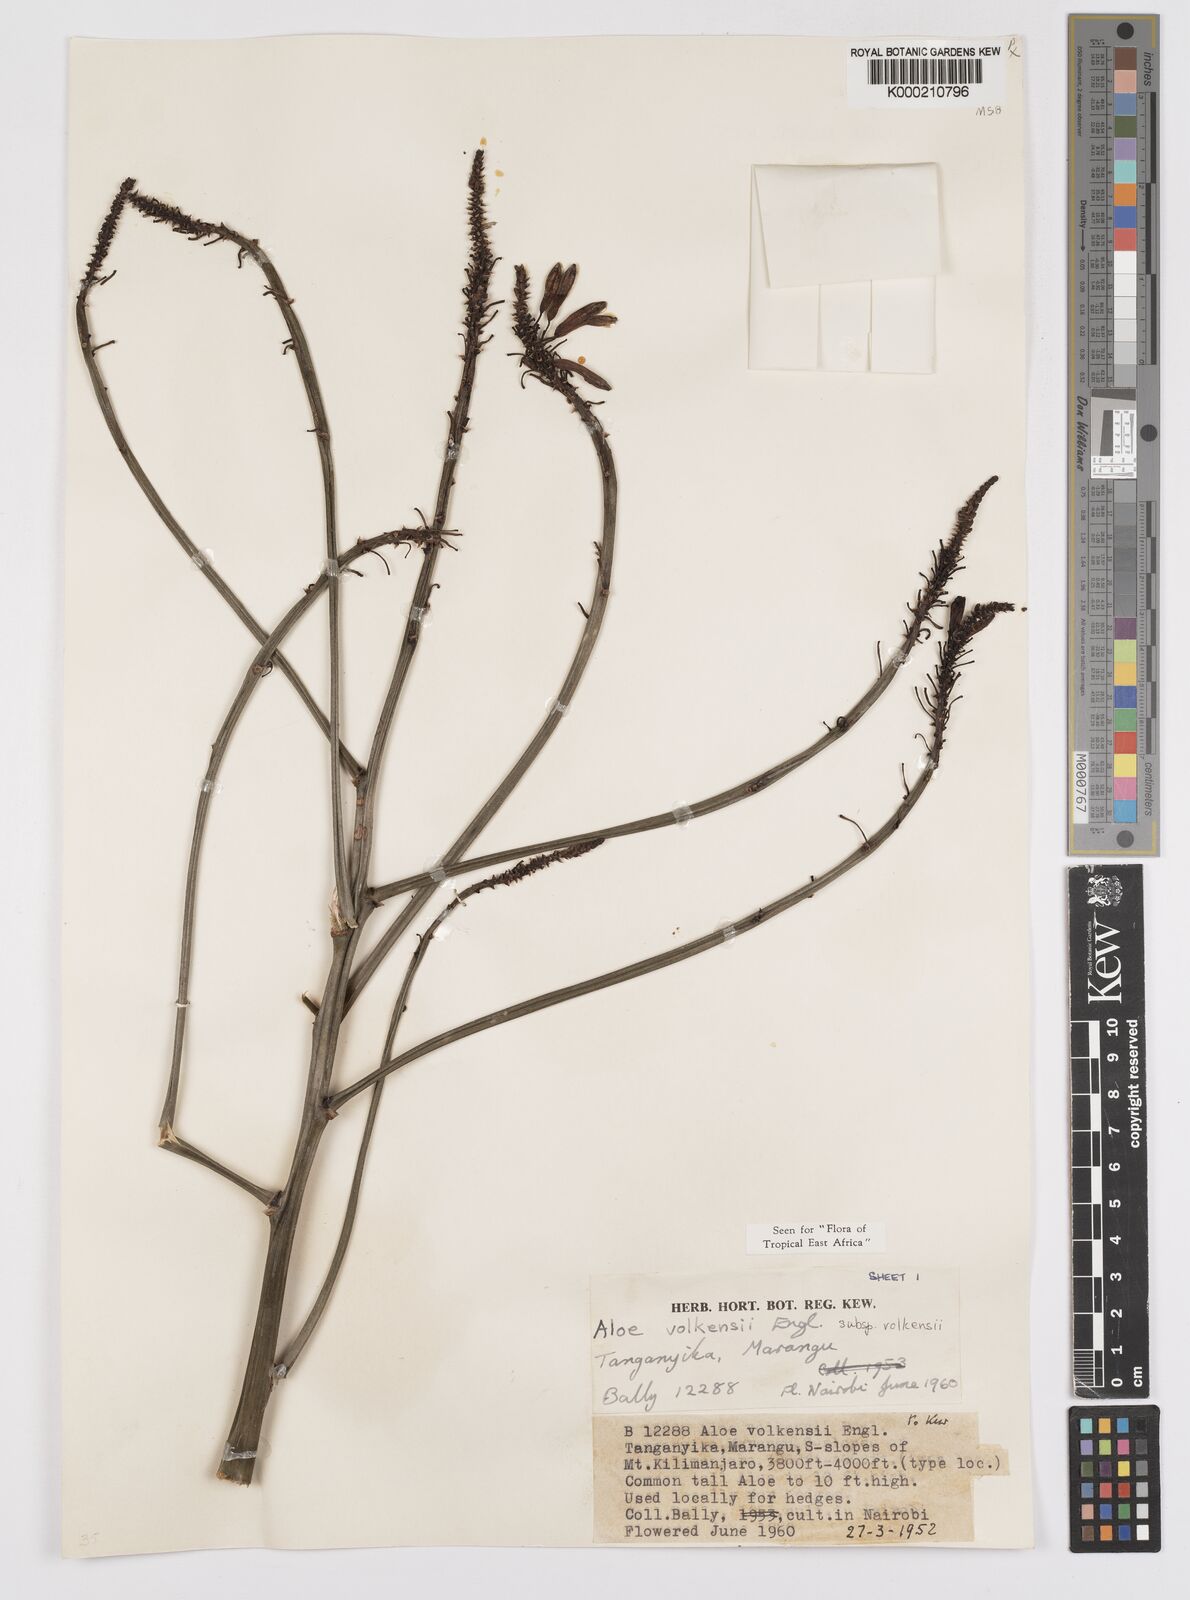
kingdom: Plantae
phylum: Tracheophyta
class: Liliopsida
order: Asparagales
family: Asphodelaceae
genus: Aloe
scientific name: Aloe volkensii
